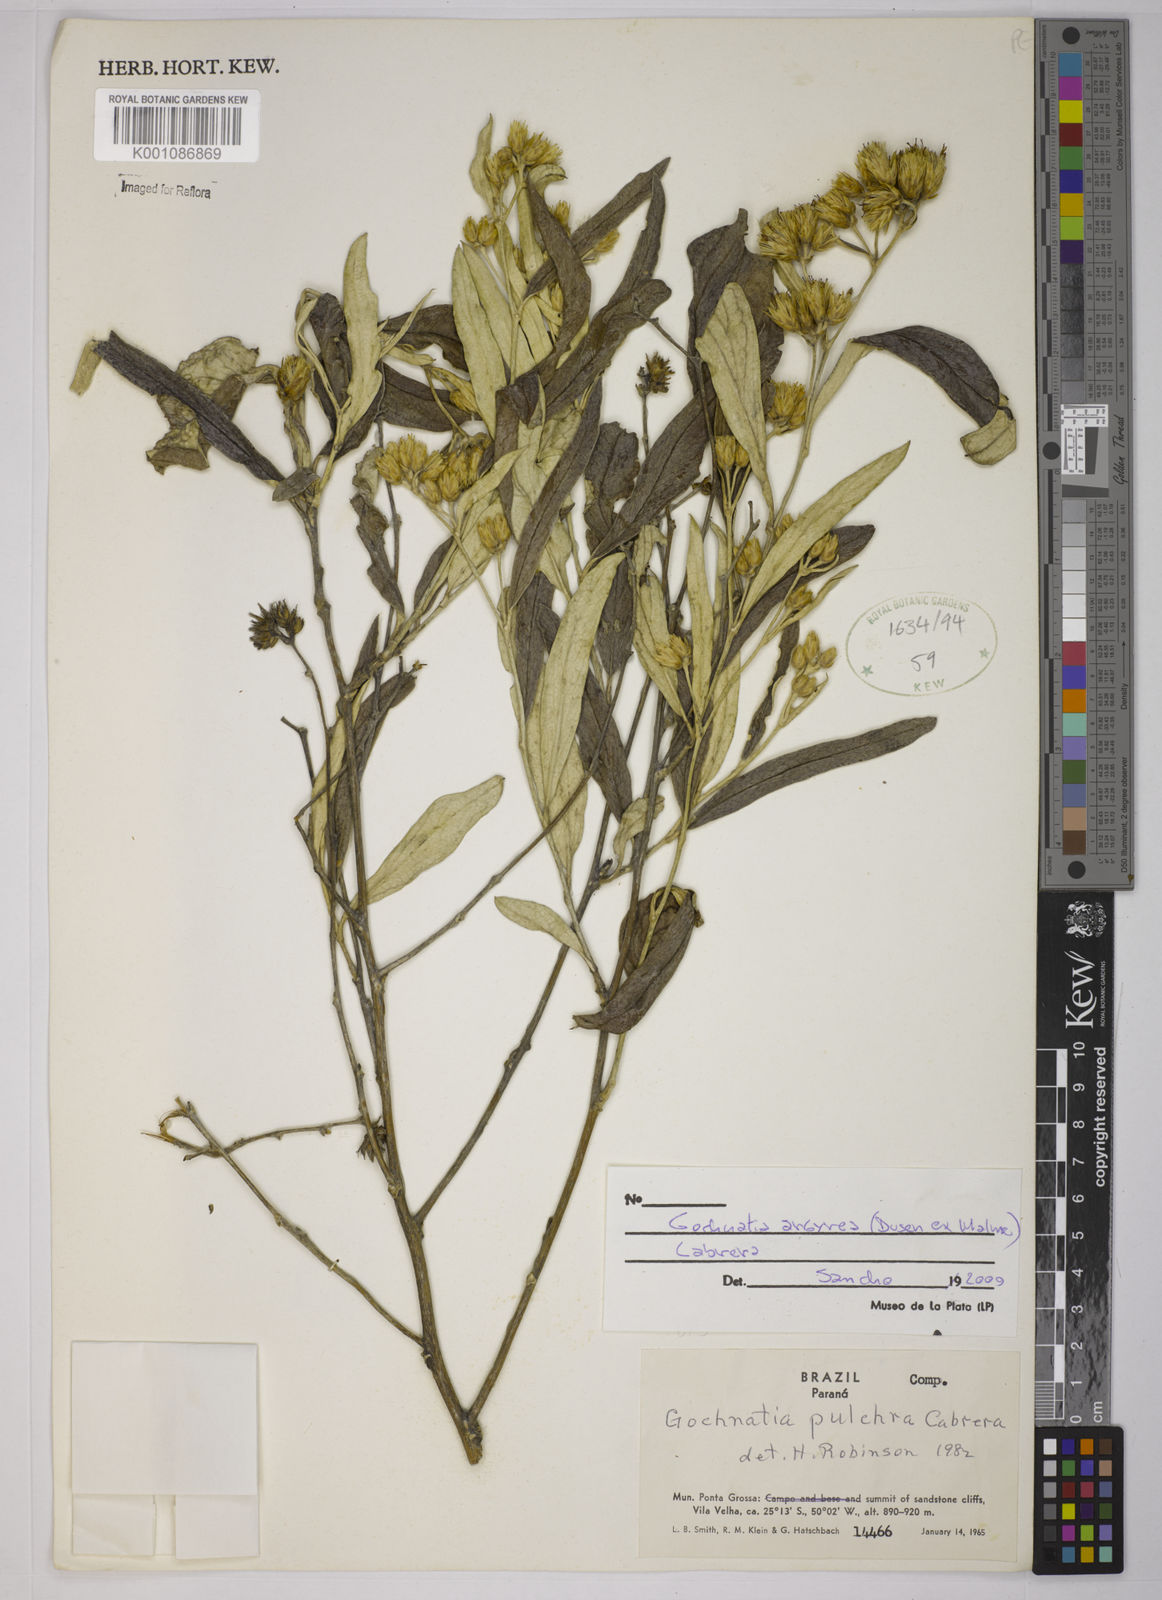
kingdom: Plantae
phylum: Tracheophyta
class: Magnoliopsida
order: Asterales
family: Asteraceae
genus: Gochnatia
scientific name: Gochnatia
